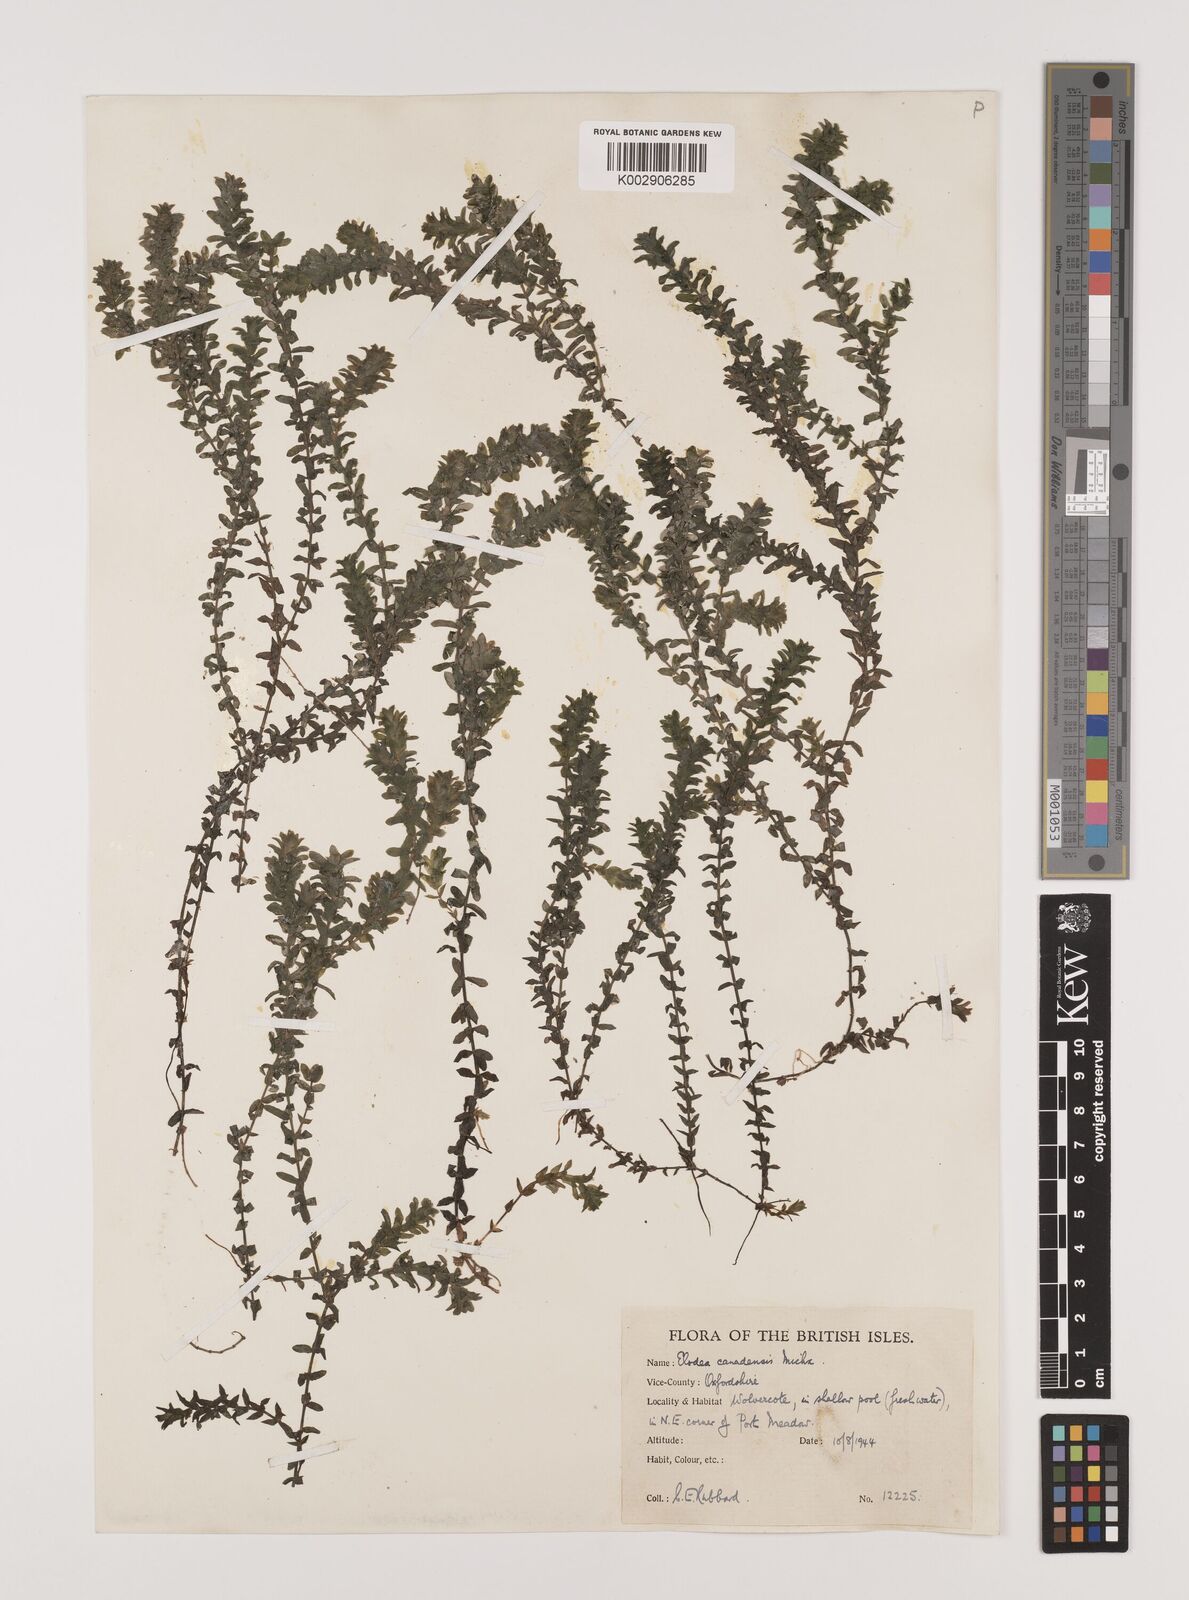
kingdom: Plantae
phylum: Tracheophyta
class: Liliopsida
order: Alismatales
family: Hydrocharitaceae
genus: Elodea
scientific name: Elodea canadensis
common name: Canadian waterweed
